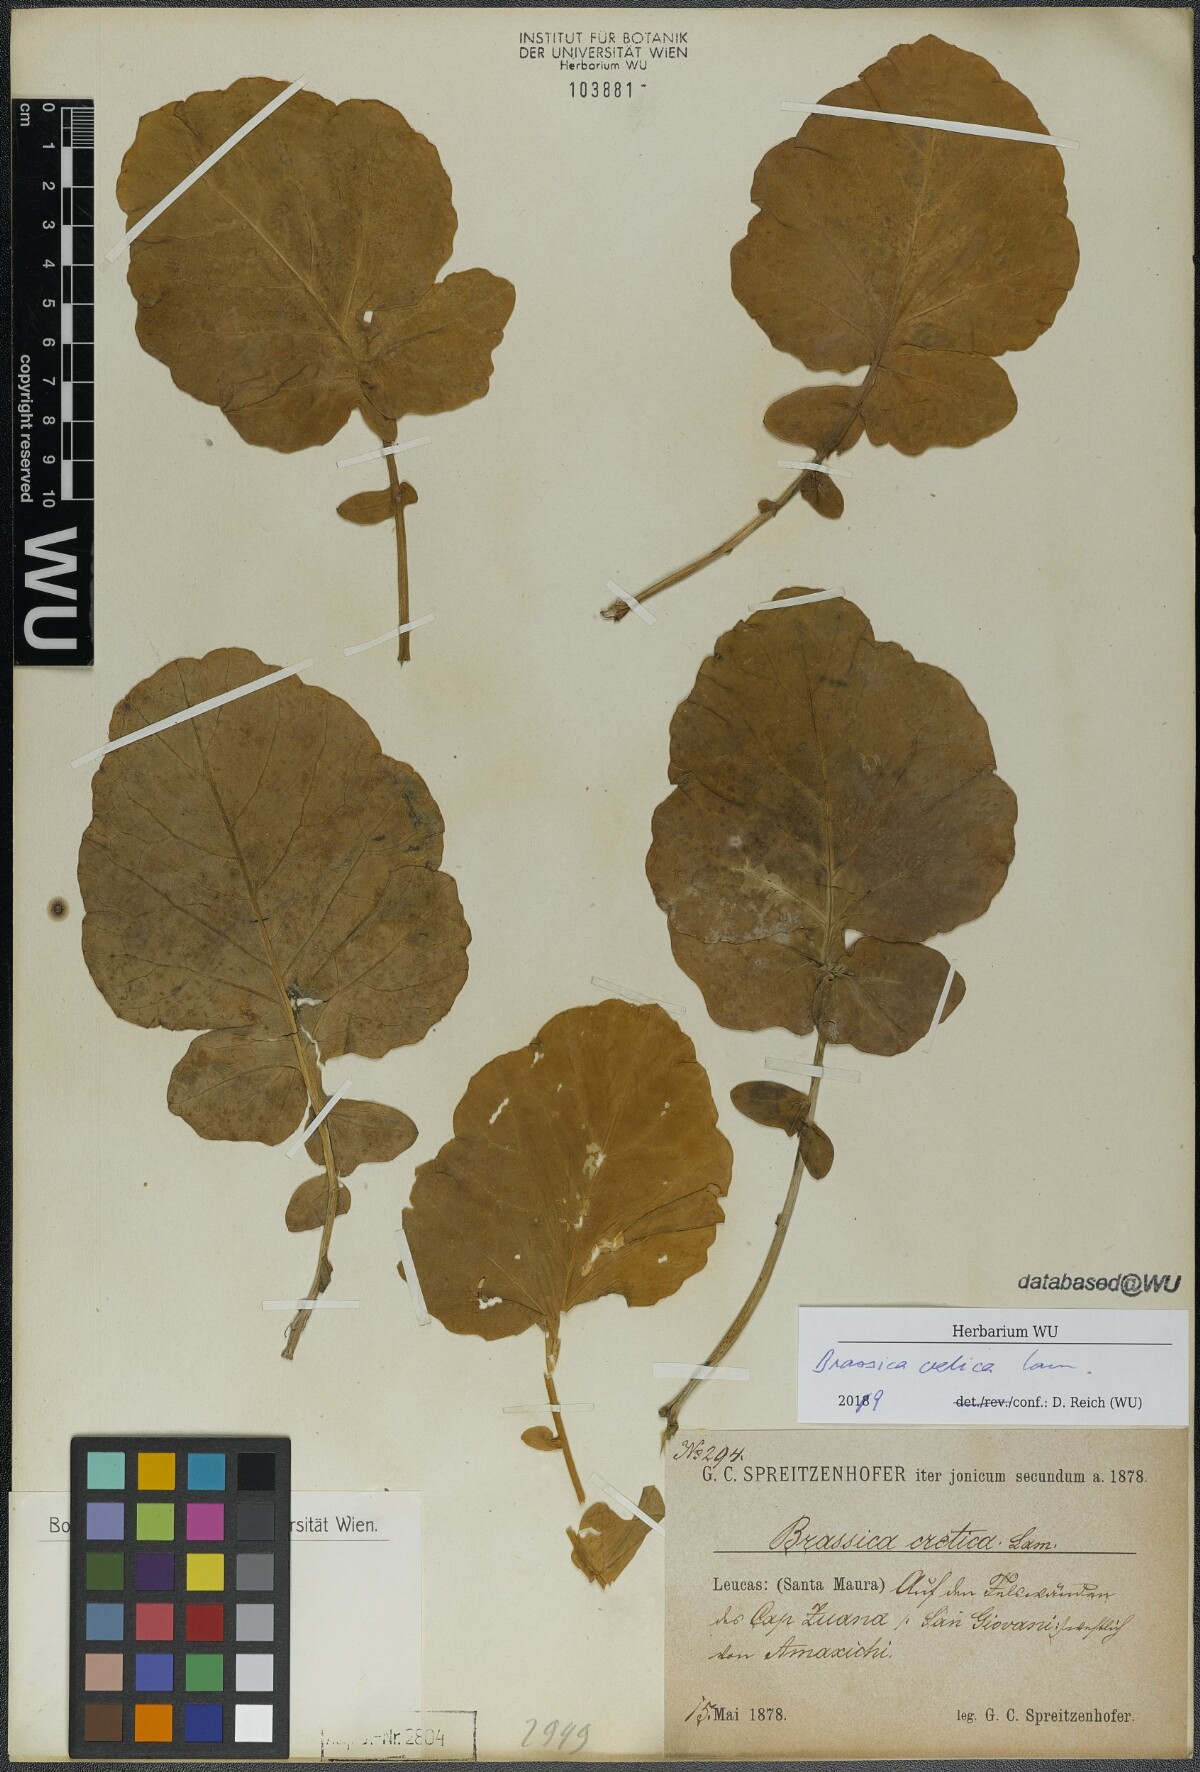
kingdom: Plantae
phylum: Tracheophyta
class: Magnoliopsida
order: Brassicales
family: Brassicaceae
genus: Brassica
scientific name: Brassica cretica
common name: Mustard
